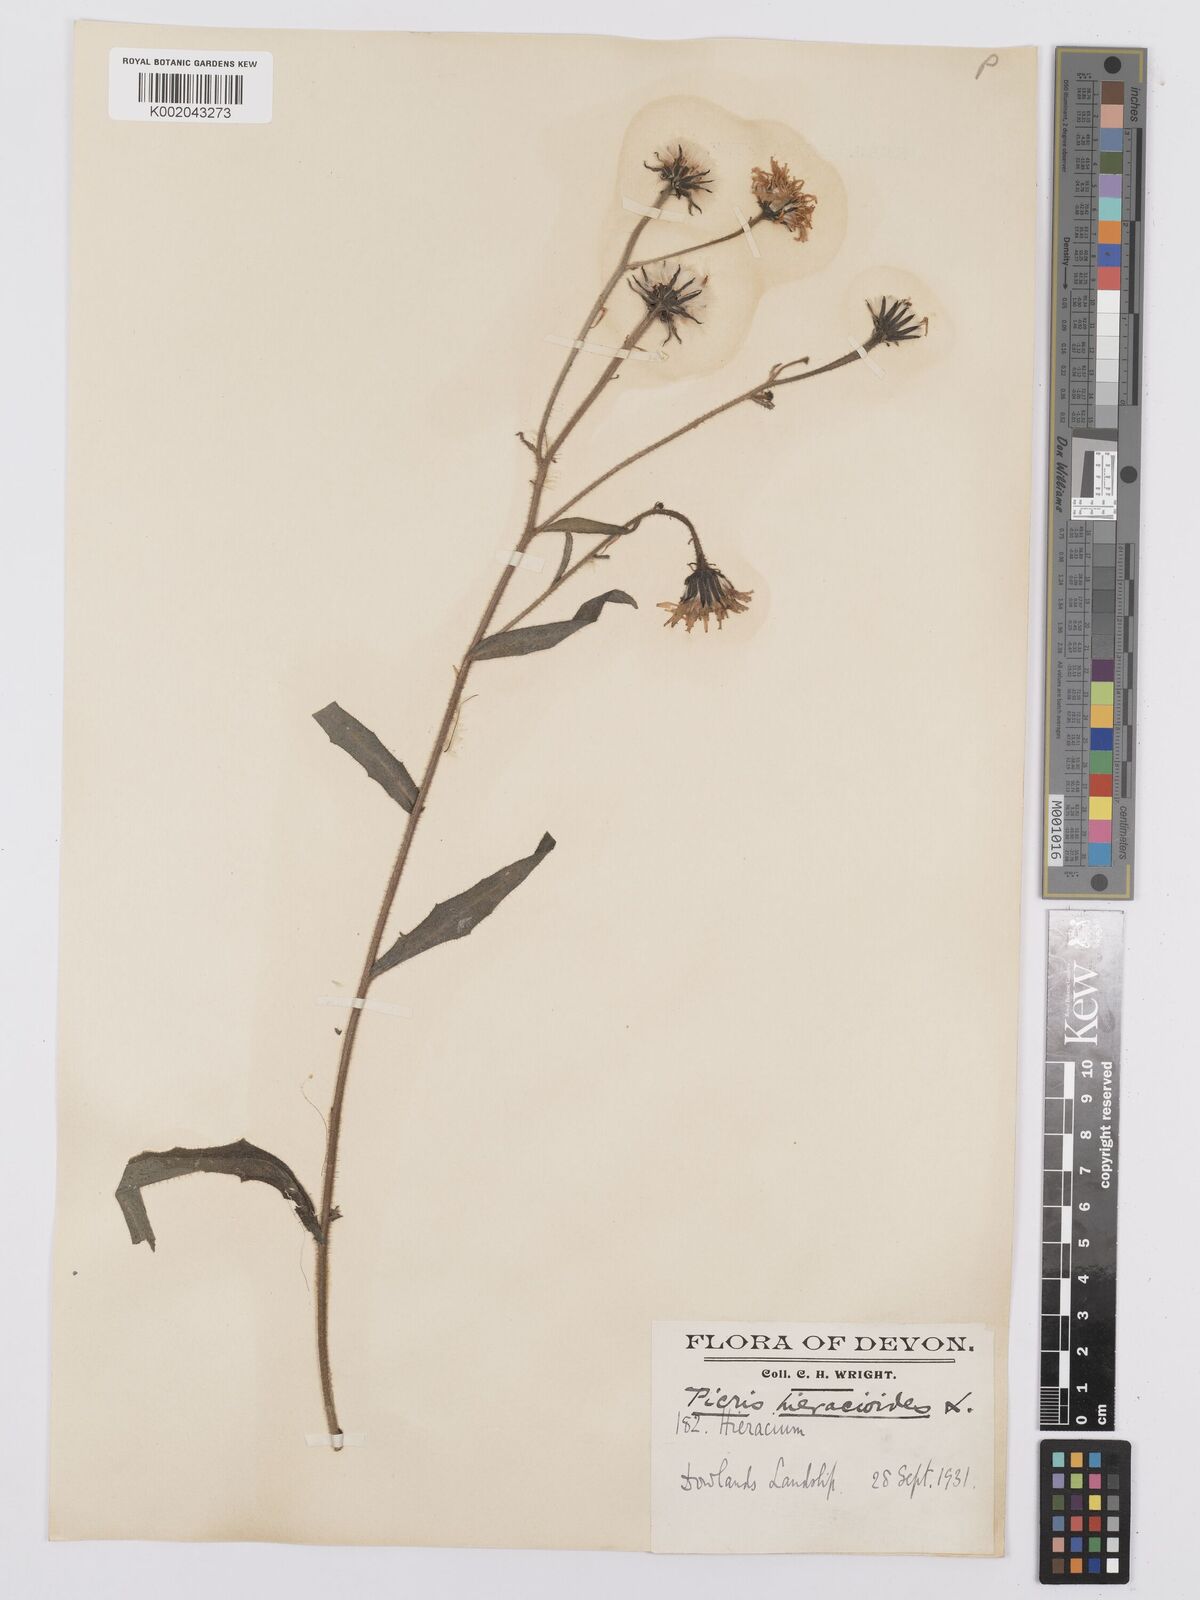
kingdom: Plantae
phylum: Tracheophyta
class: Magnoliopsida
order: Asterales
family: Asteraceae
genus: Picris
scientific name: Picris hieracioides
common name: Hawkweed oxtongue
